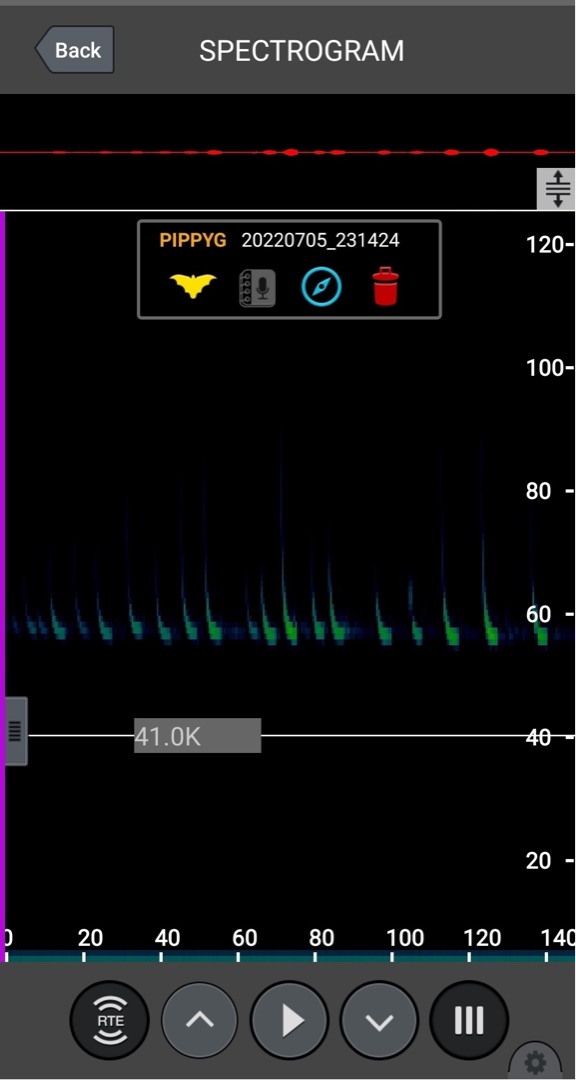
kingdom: Animalia
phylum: Chordata
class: Mammalia
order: Chiroptera
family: Vespertilionidae
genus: Pipistrellus
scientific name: Pipistrellus pygmaeus
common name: Dværgflagermus
